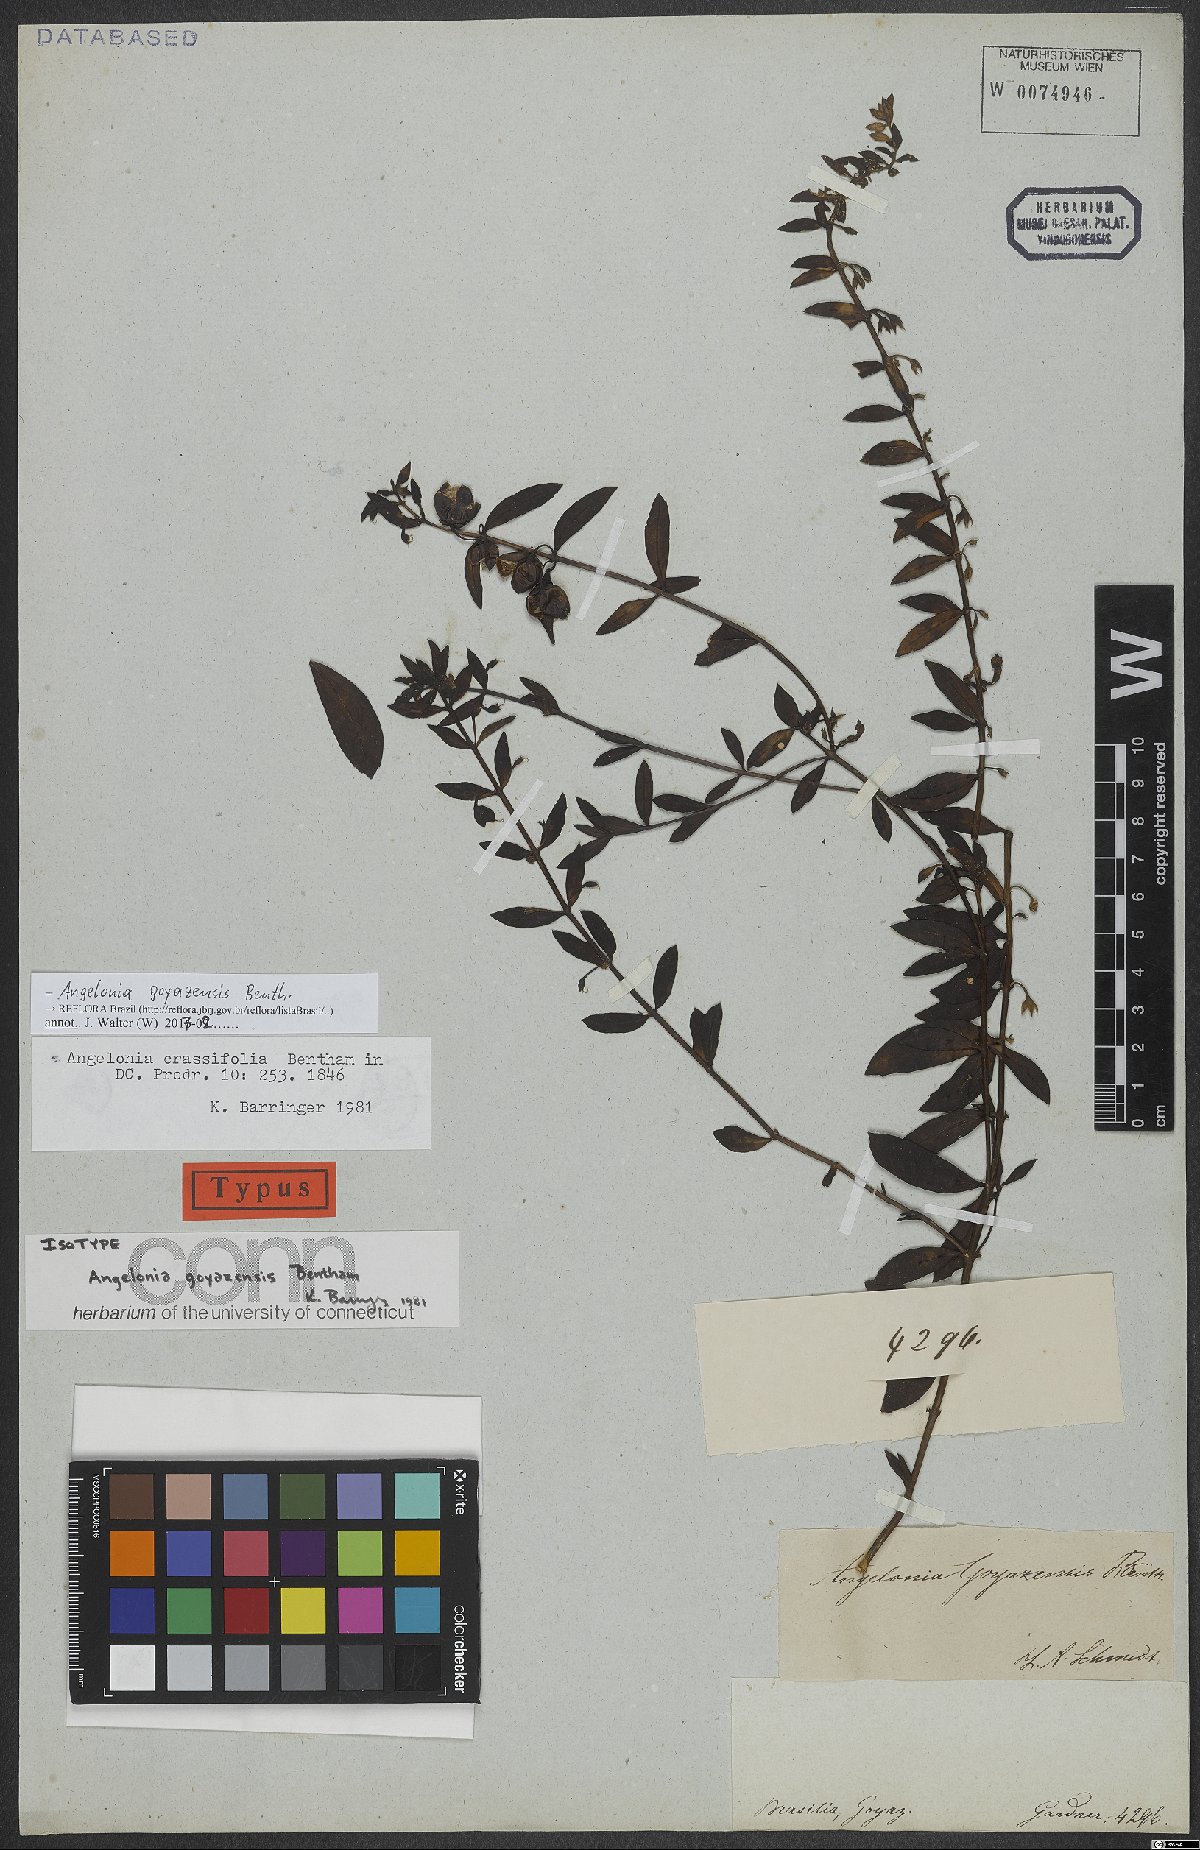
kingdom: Plantae
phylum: Tracheophyta
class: Magnoliopsida
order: Lamiales
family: Plantaginaceae
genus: Angelonia
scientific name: Angelonia goyazensis
